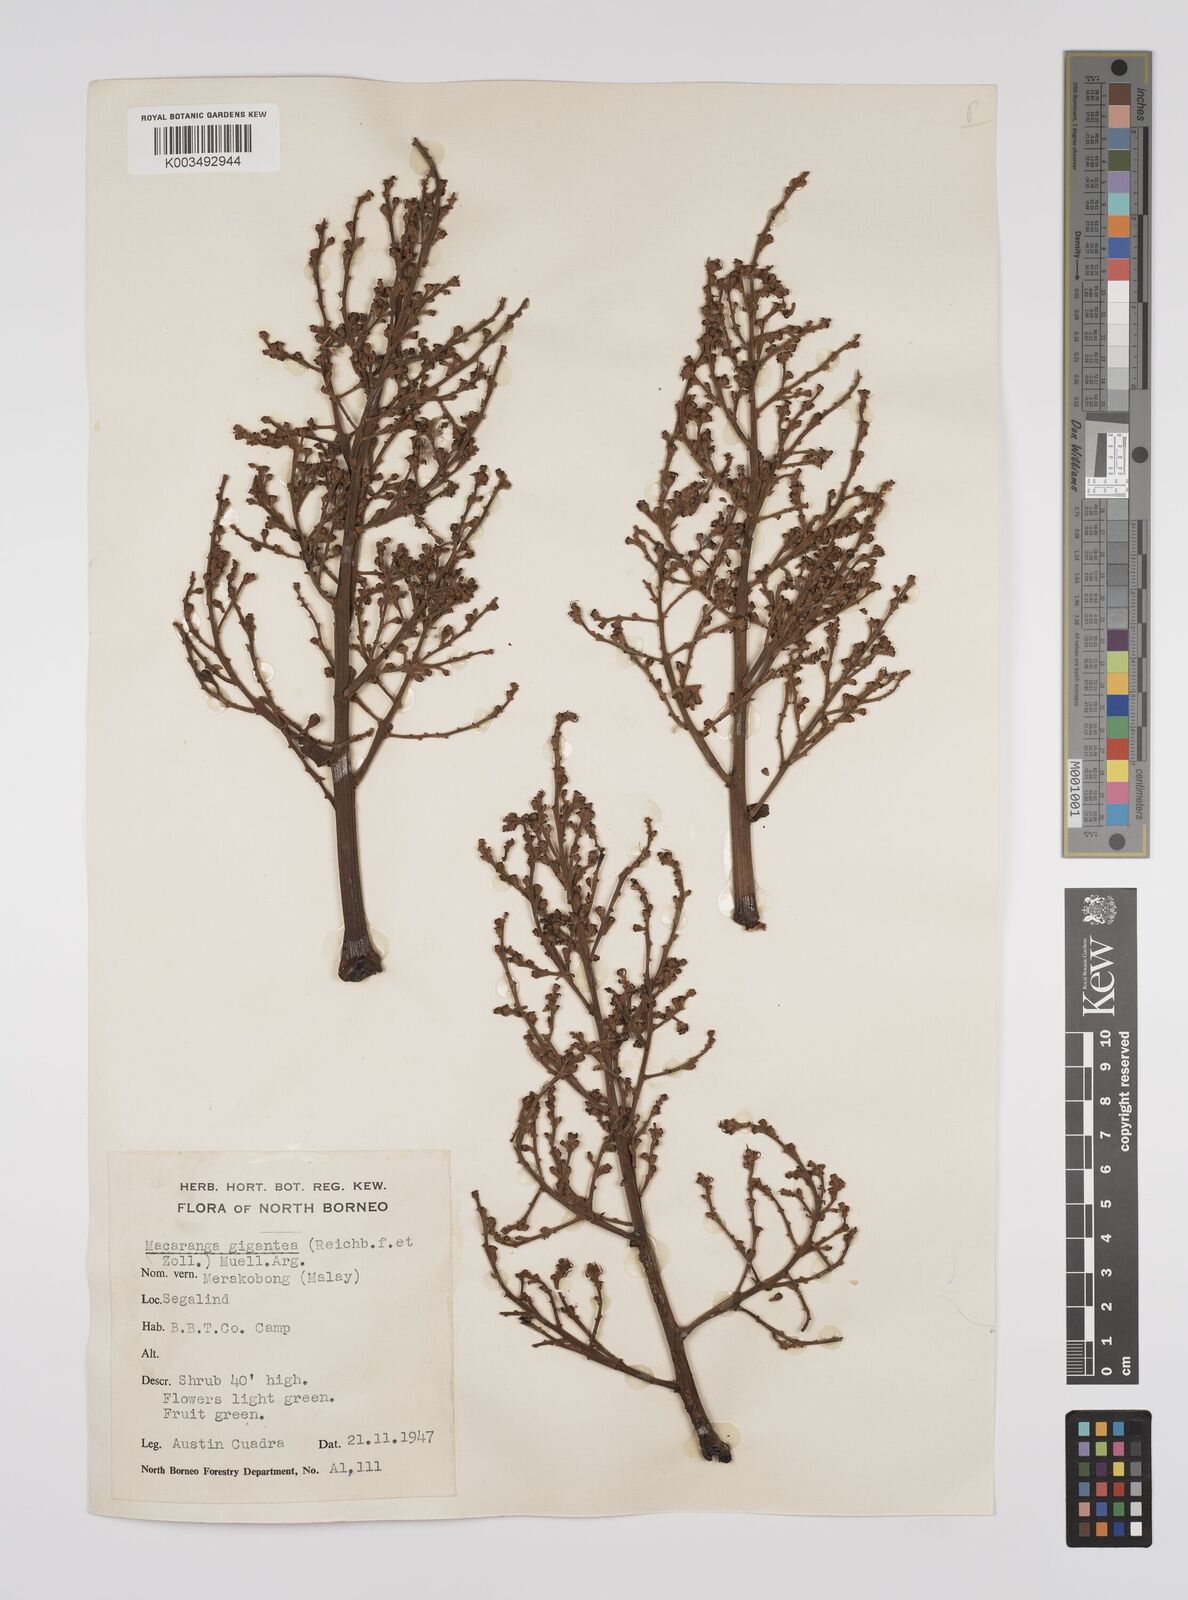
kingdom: Plantae
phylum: Tracheophyta
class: Magnoliopsida
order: Malpighiales
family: Euphorbiaceae
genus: Macaranga
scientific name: Macaranga gigantea
